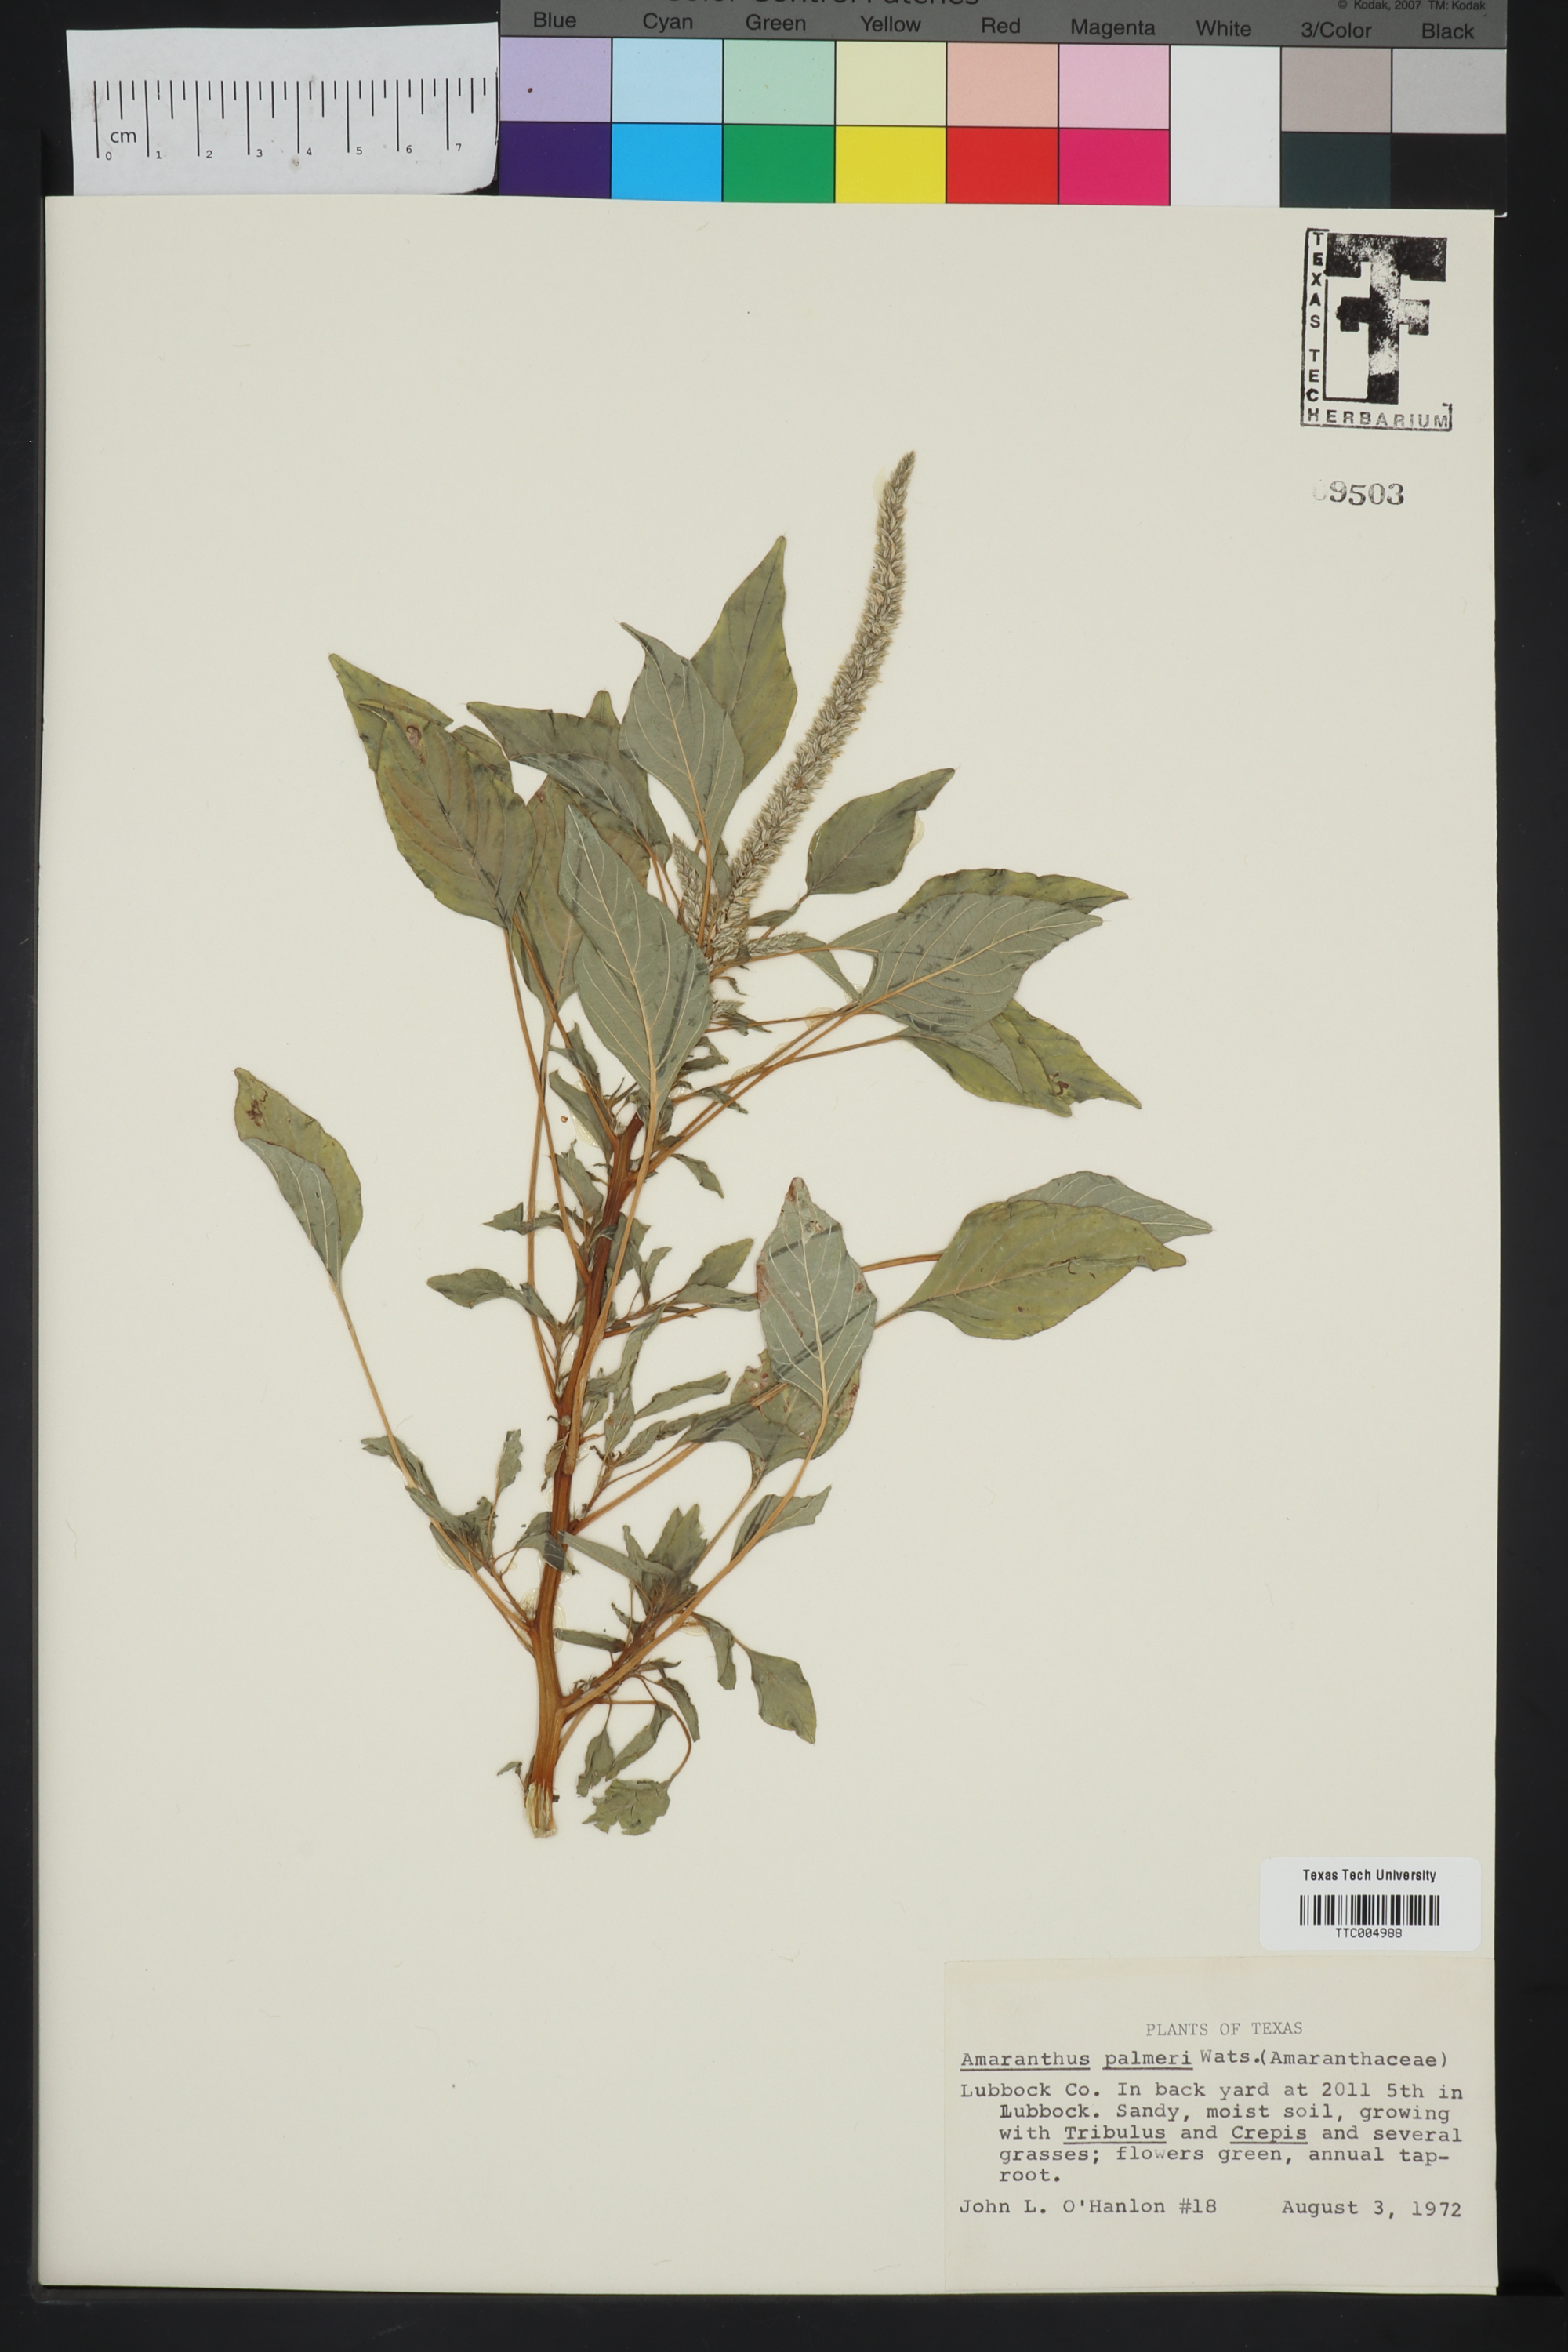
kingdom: Plantae
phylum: Tracheophyta
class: Magnoliopsida
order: Caryophyllales
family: Amaranthaceae
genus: Amaranthus
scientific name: Amaranthus palmeri
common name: Dioecious amaranth
